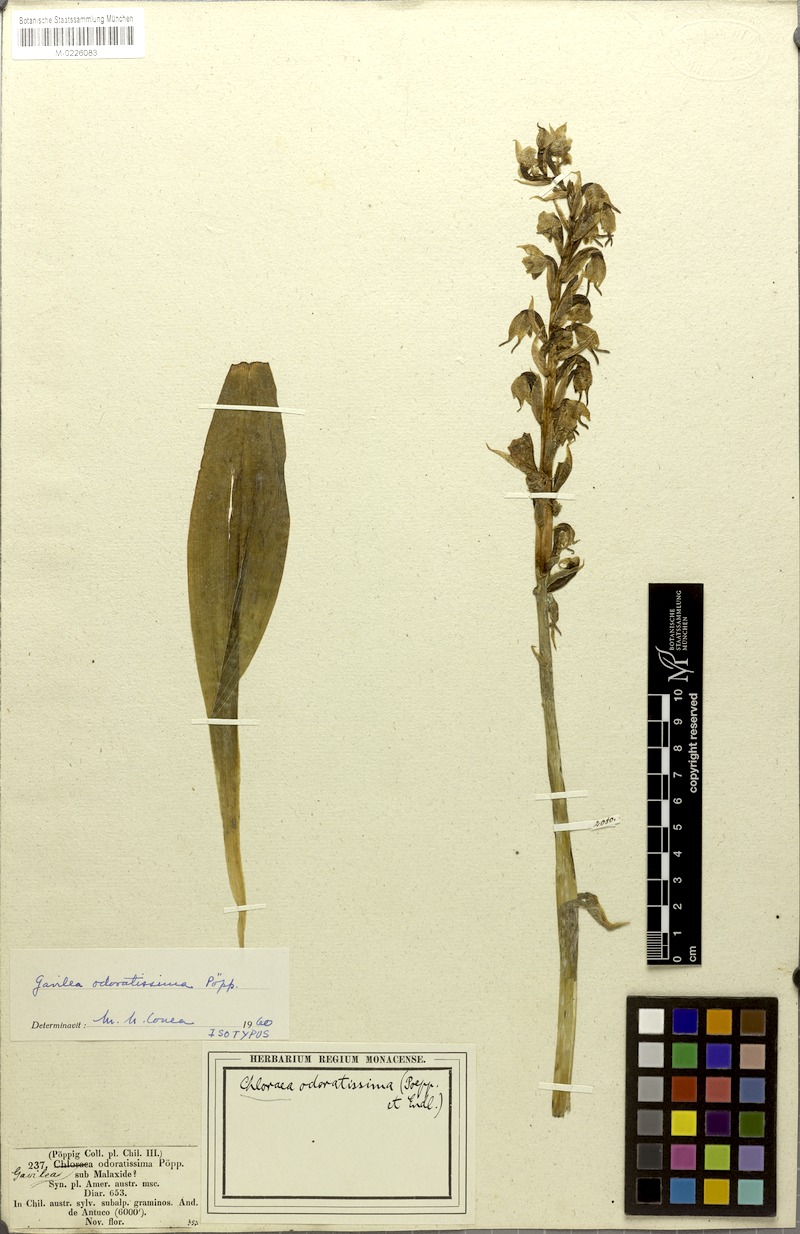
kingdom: Plantae
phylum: Tracheophyta
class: Liliopsida
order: Asparagales
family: Orchidaceae
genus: Gavilea
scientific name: Gavilea odoratissima
